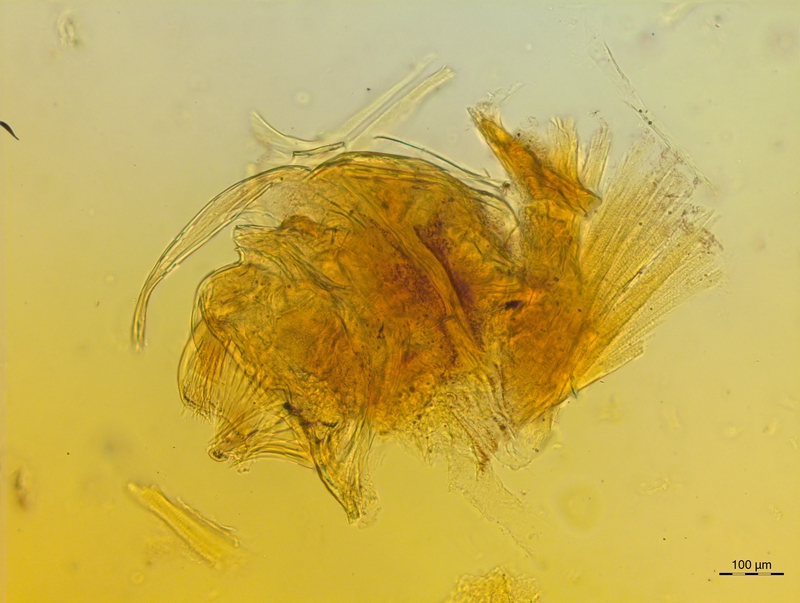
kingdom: Animalia
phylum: Arthropoda
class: Diplopoda
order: Chordeumatida
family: Craspedosomatidae
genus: Craspedosoma
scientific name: Craspedosoma rawlinsii
